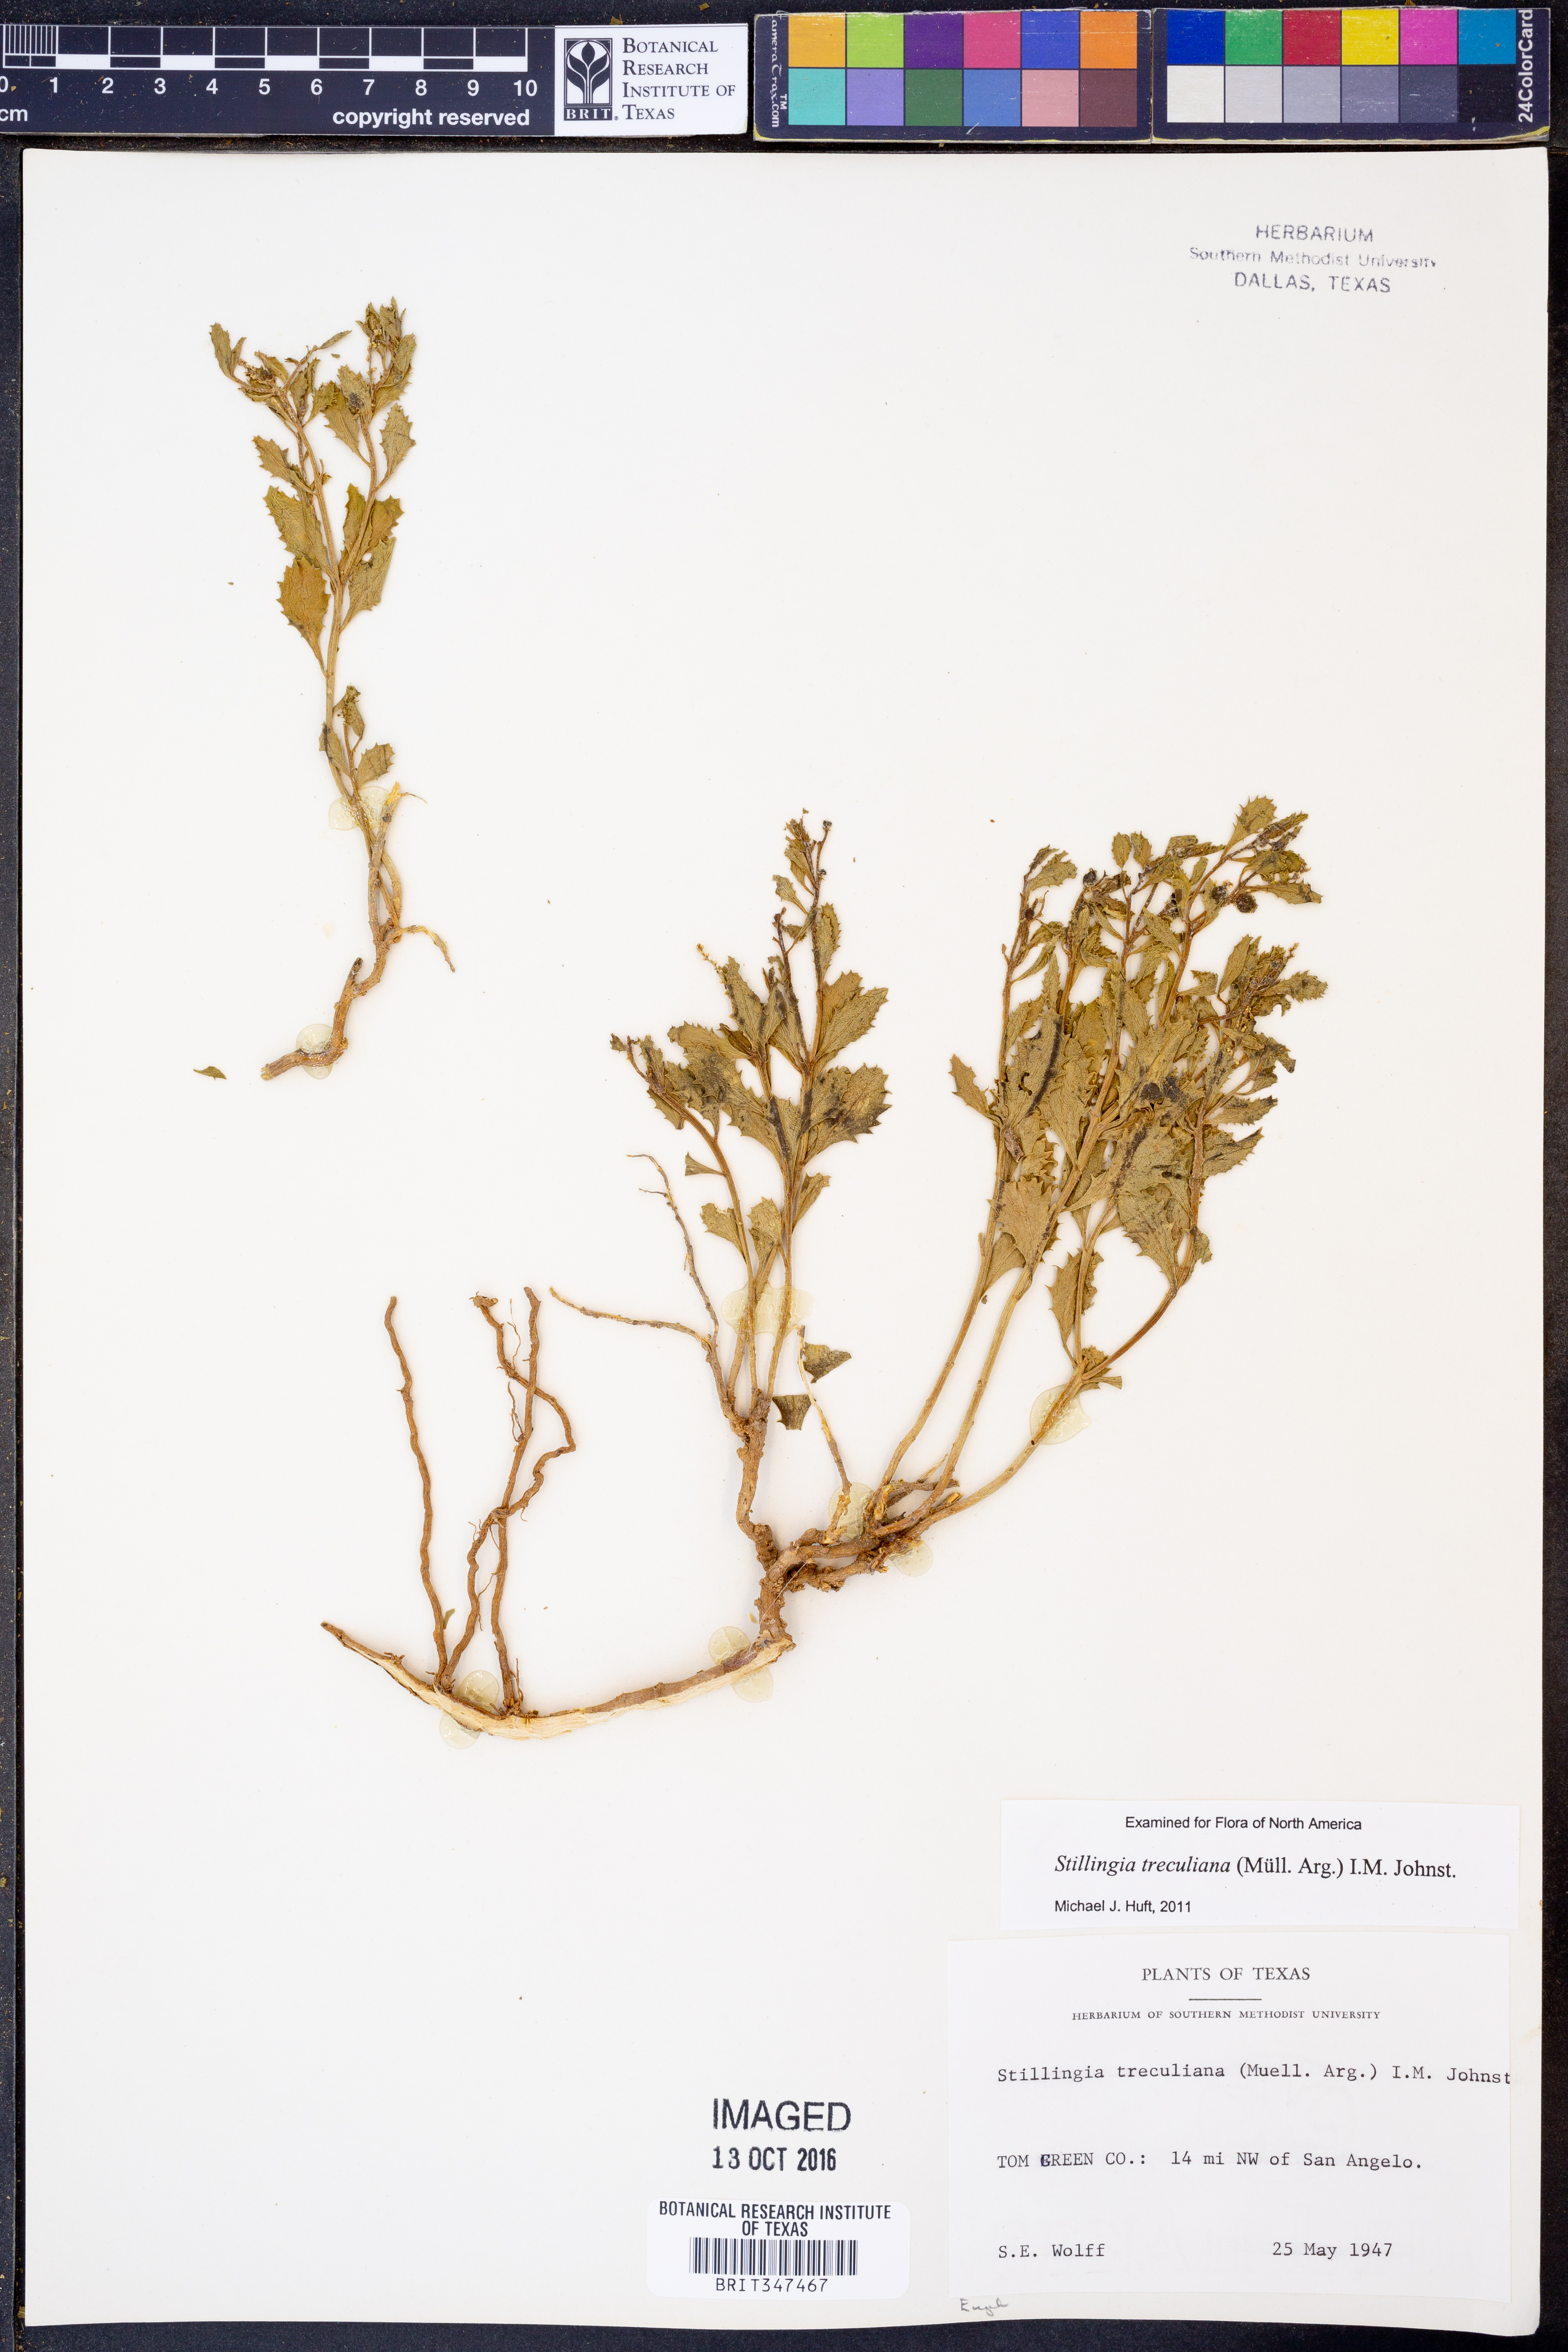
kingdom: Plantae
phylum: Tracheophyta
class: Magnoliopsida
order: Malpighiales
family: Euphorbiaceae
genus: Stillingia
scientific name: Stillingia treculiana
